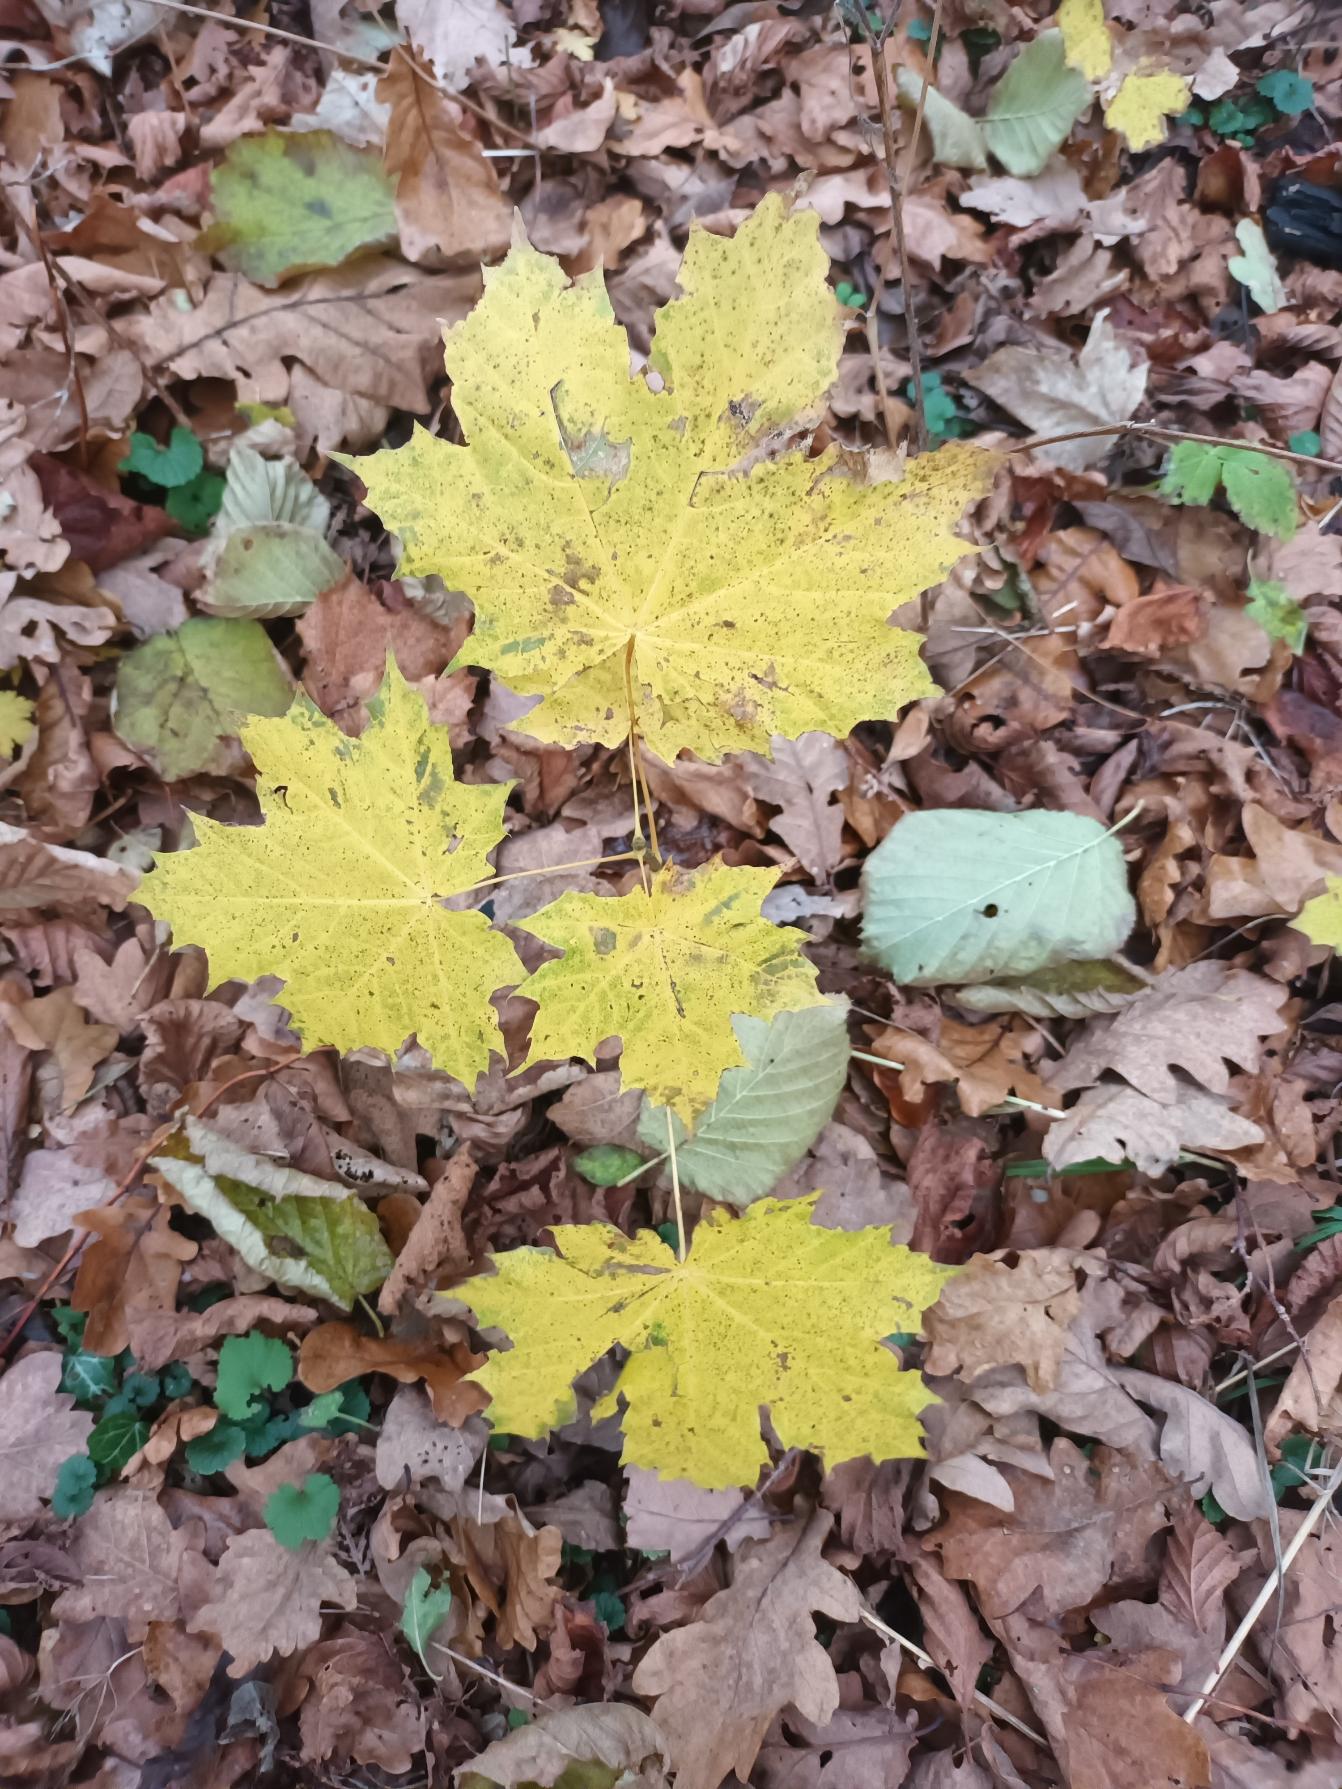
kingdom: Plantae
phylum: Tracheophyta
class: Magnoliopsida
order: Sapindales
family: Sapindaceae
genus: Acer
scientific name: Acer platanoides
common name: Spids-løn
